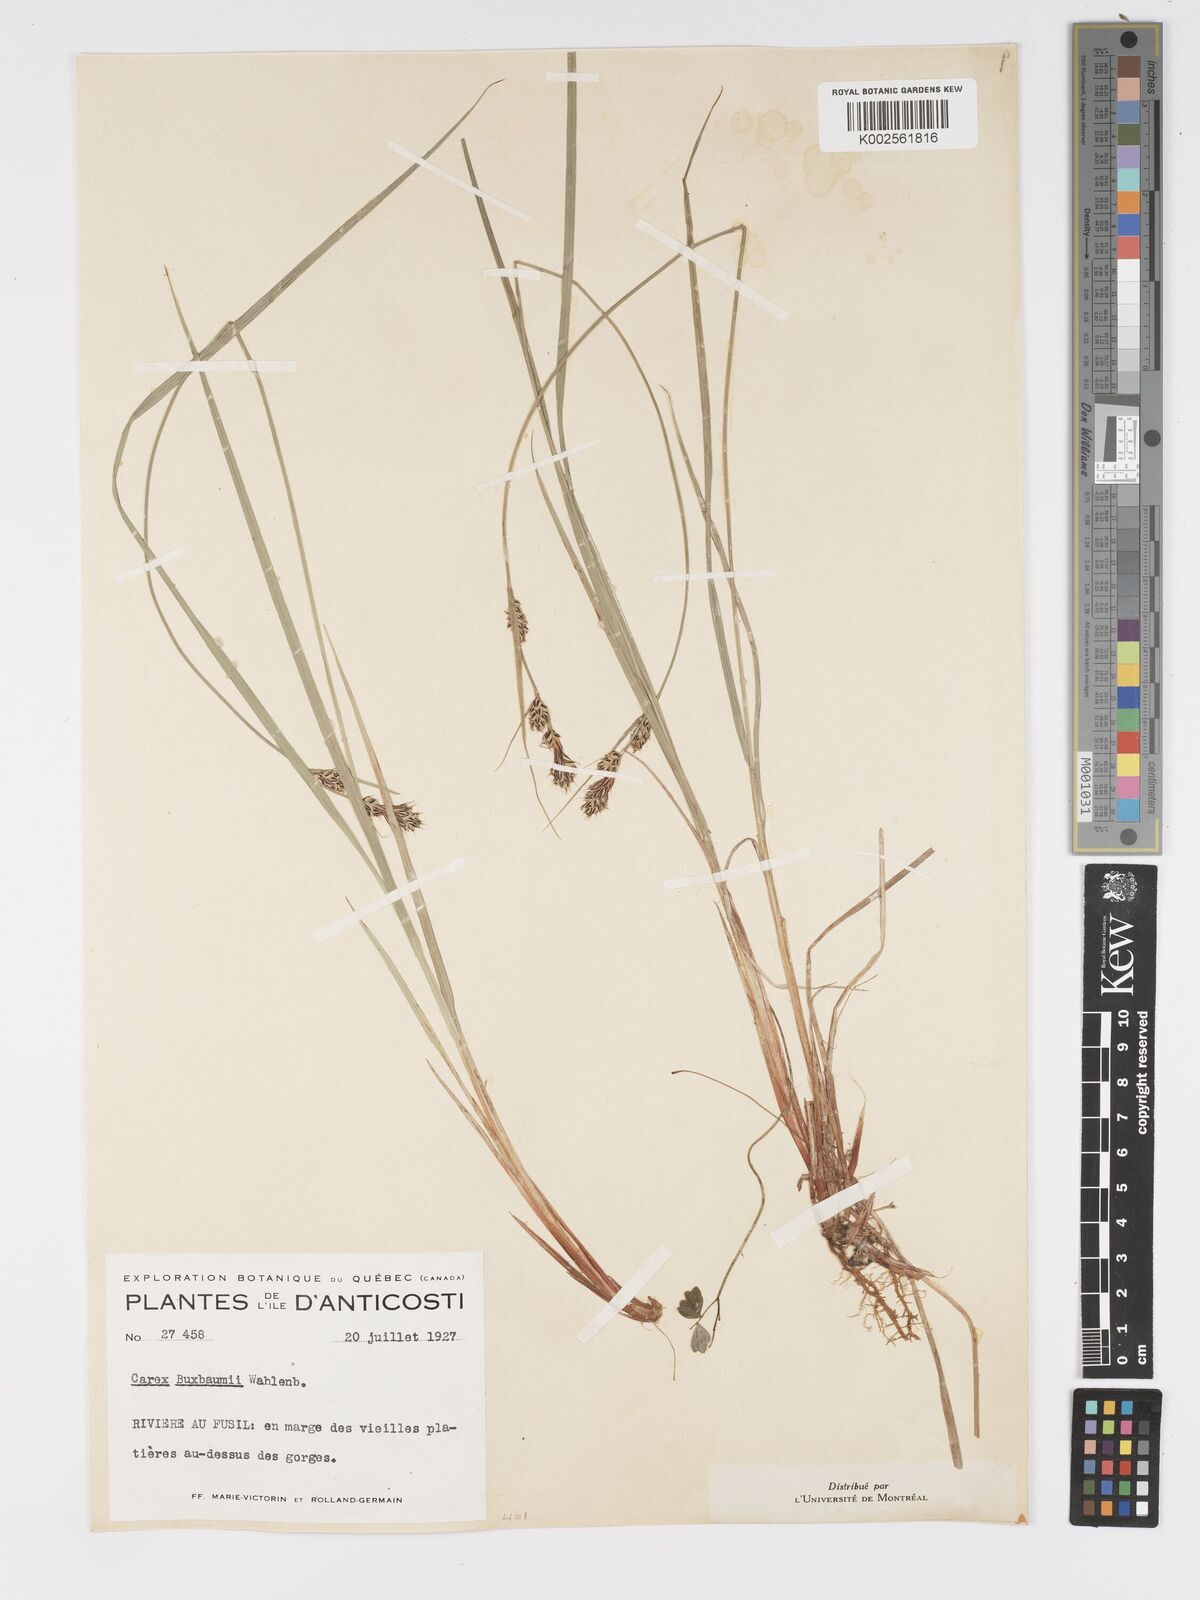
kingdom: Plantae
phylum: Tracheophyta
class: Liliopsida
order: Poales
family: Cyperaceae
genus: Carex
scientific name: Carex buxbaumii
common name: Club sedge
